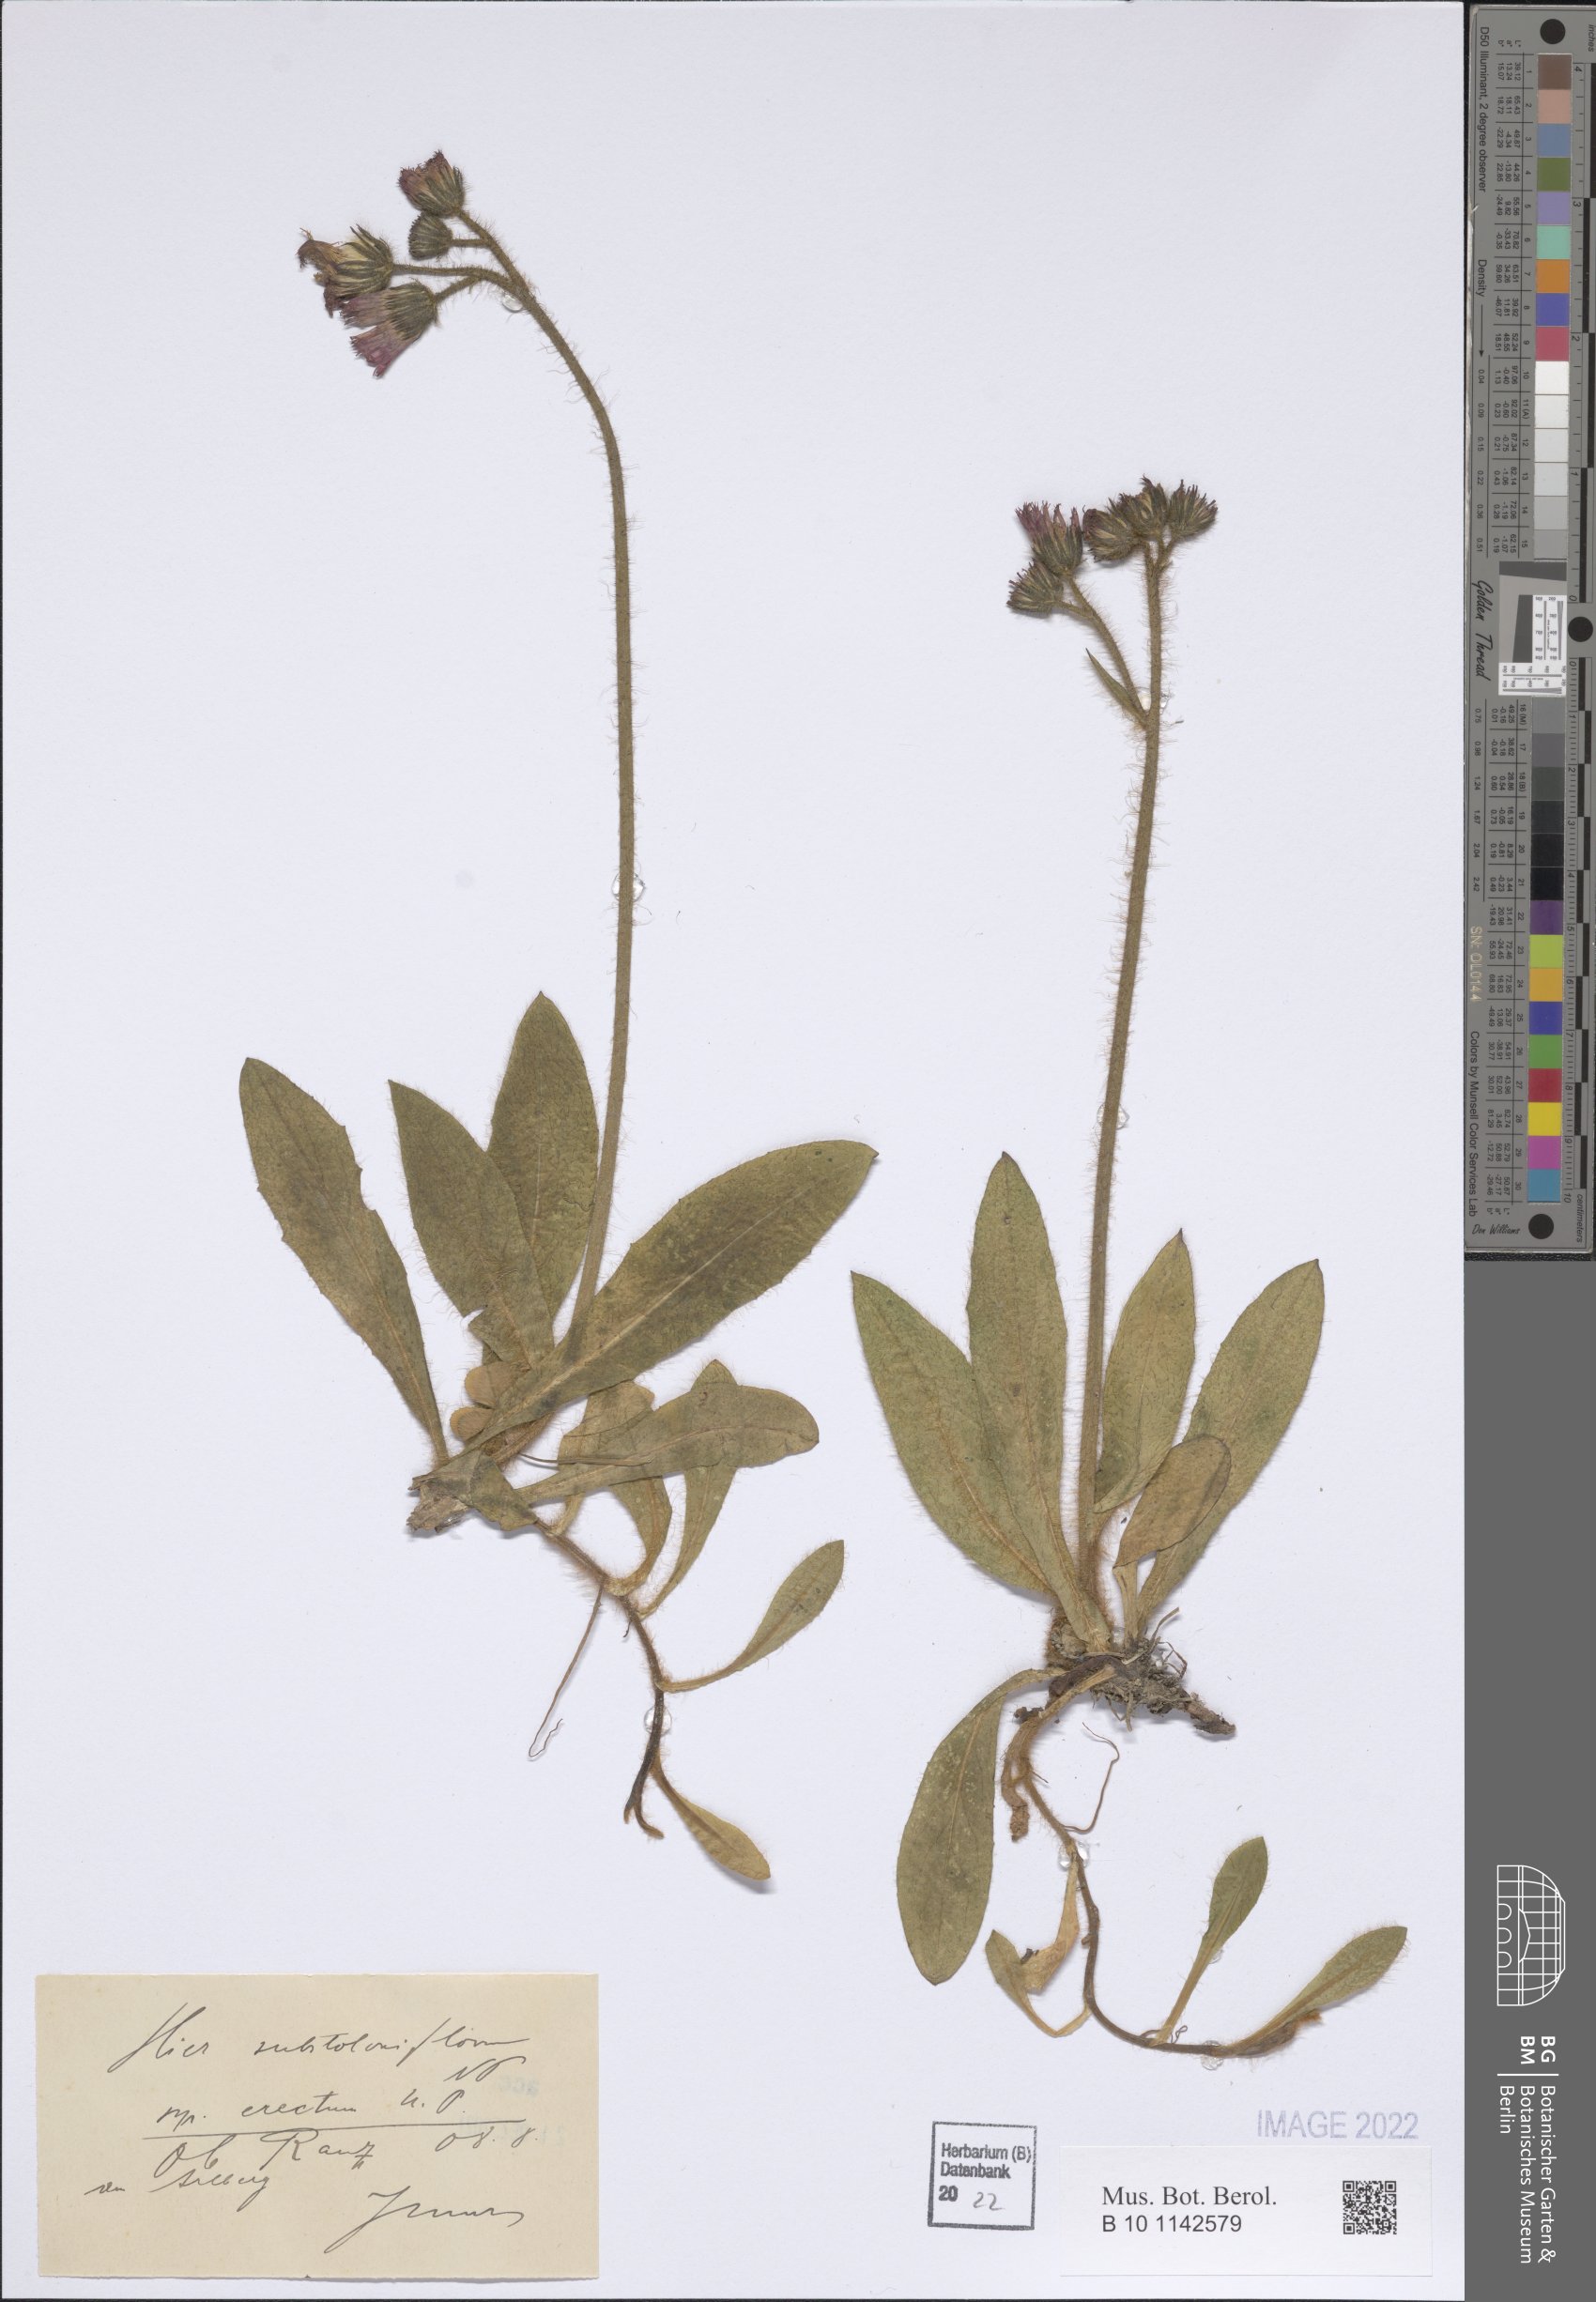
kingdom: Plantae
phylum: Tracheophyta
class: Magnoliopsida
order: Asterales
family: Asteraceae
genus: Pilosella
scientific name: Pilosella substoloniflora
